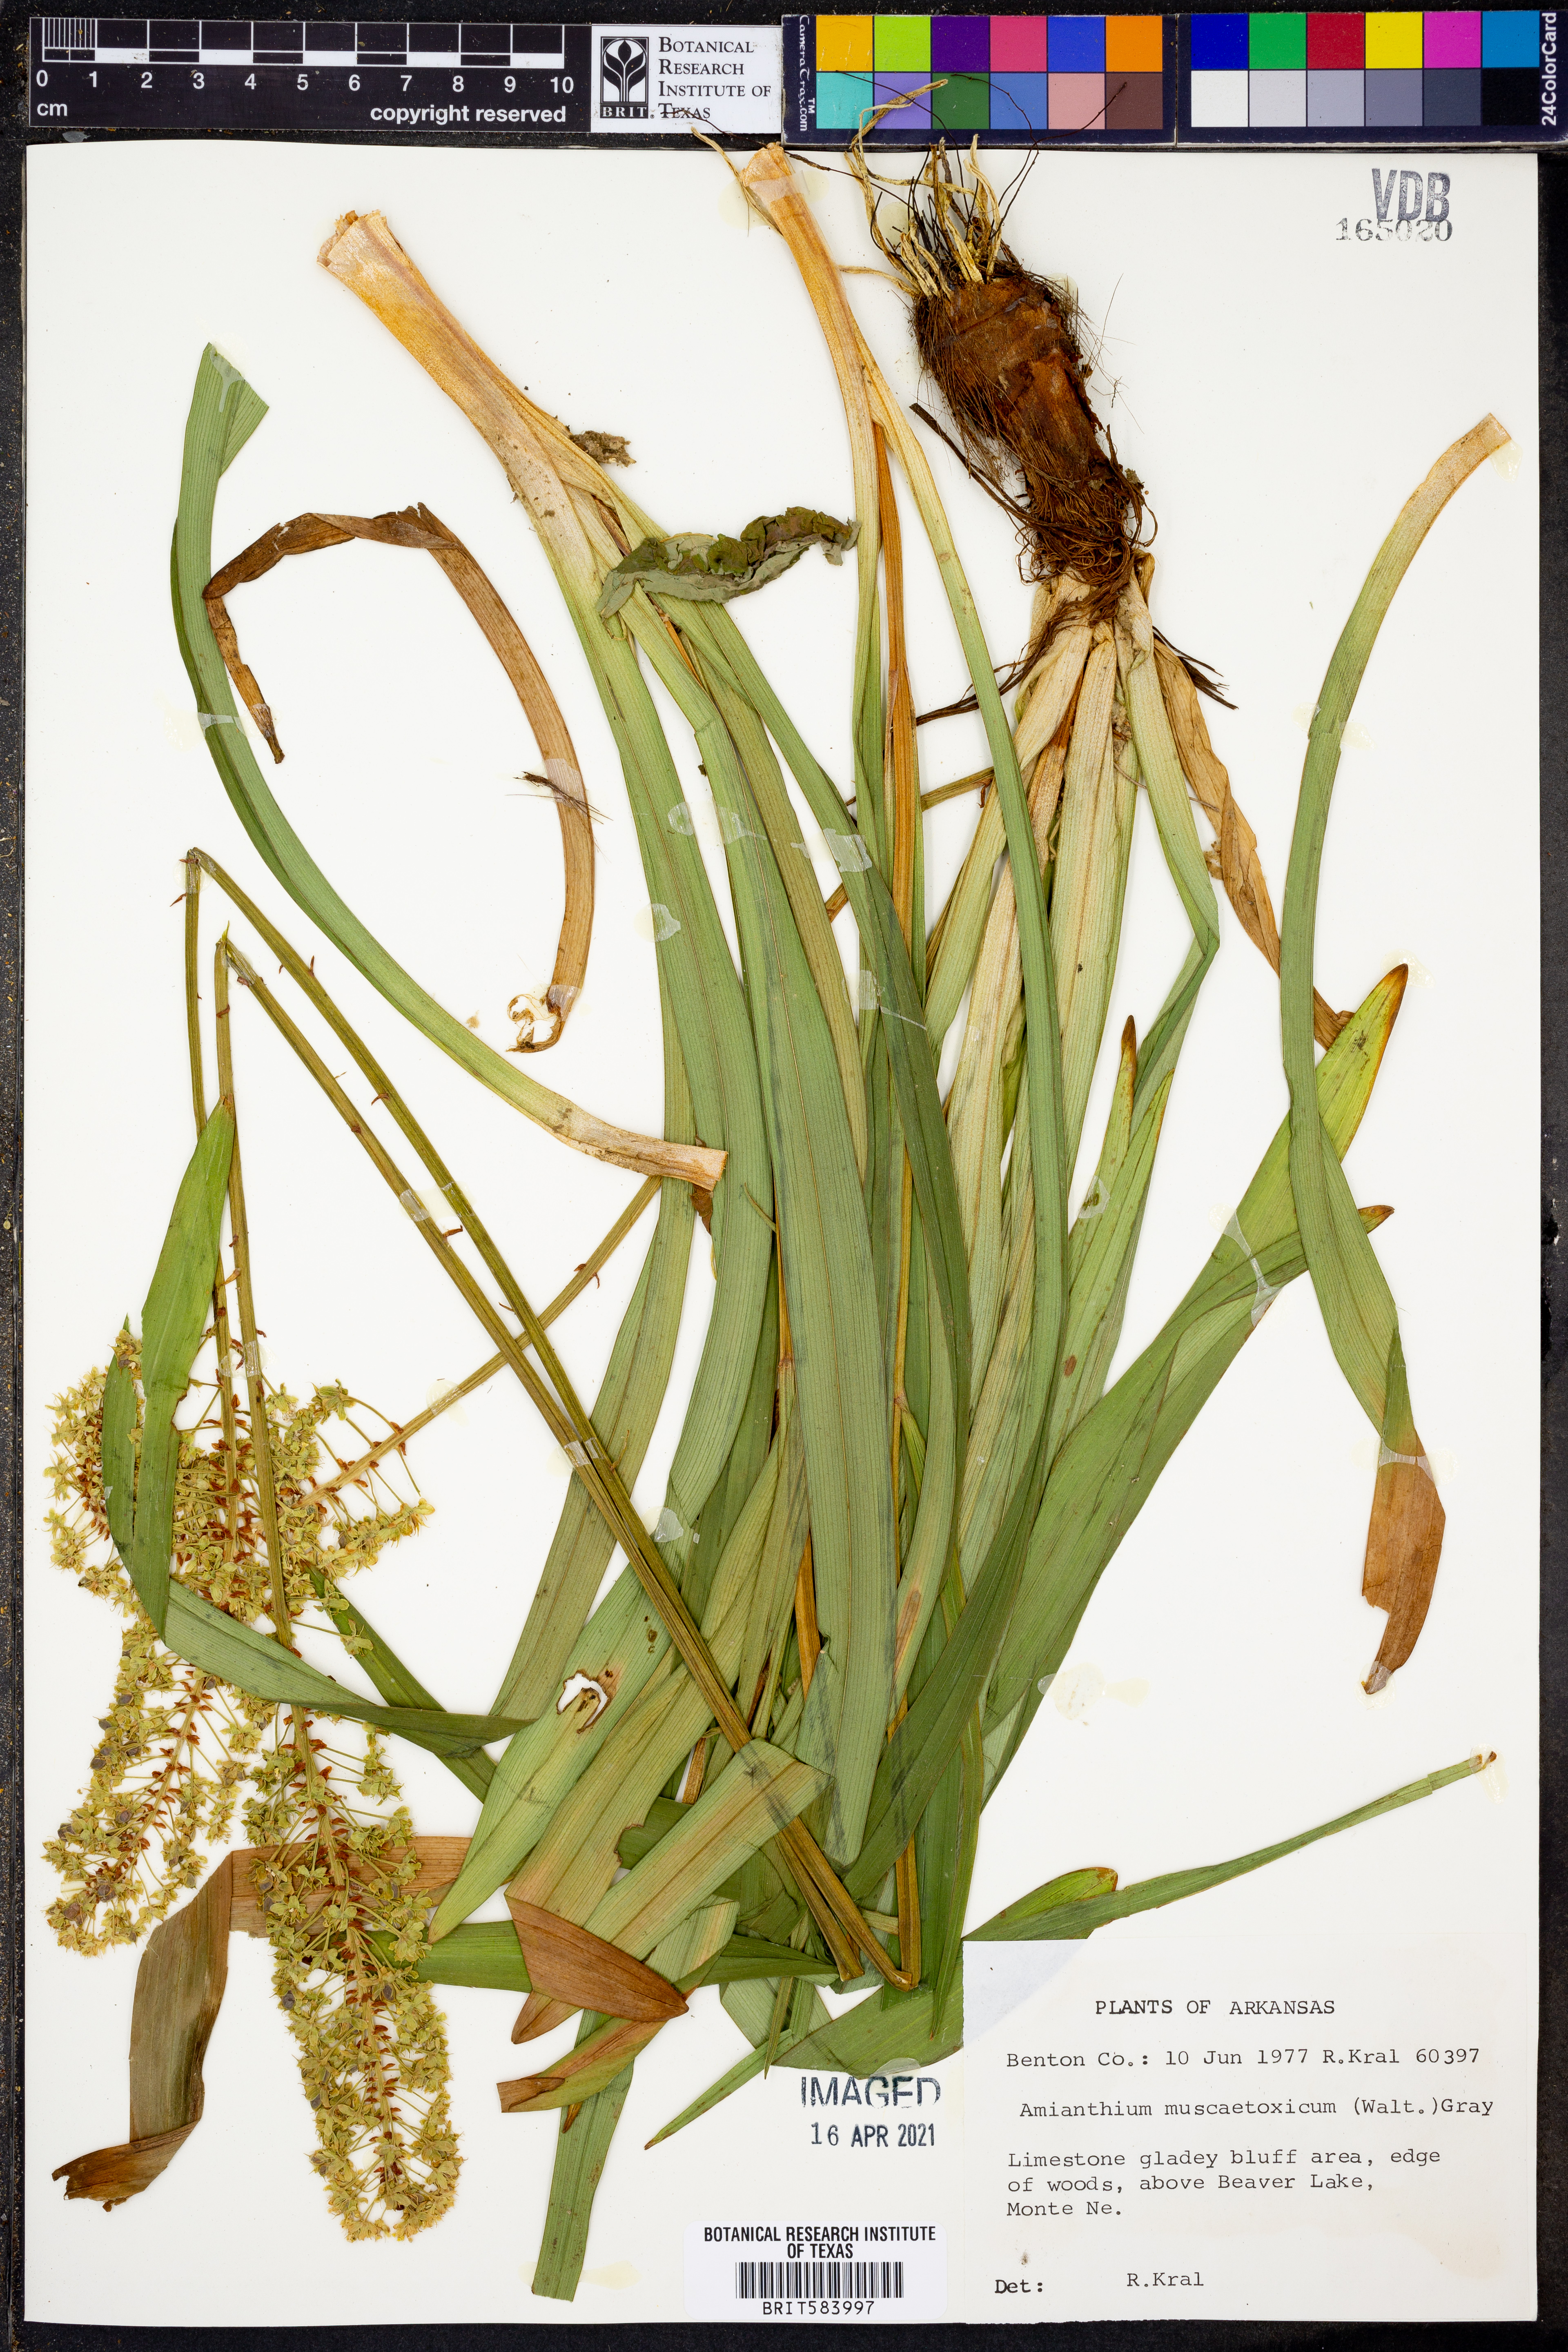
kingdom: Plantae
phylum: Tracheophyta
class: Liliopsida
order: Liliales
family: Melanthiaceae
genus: Amianthium
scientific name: Amianthium muscitoxicum
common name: Fly-poison
